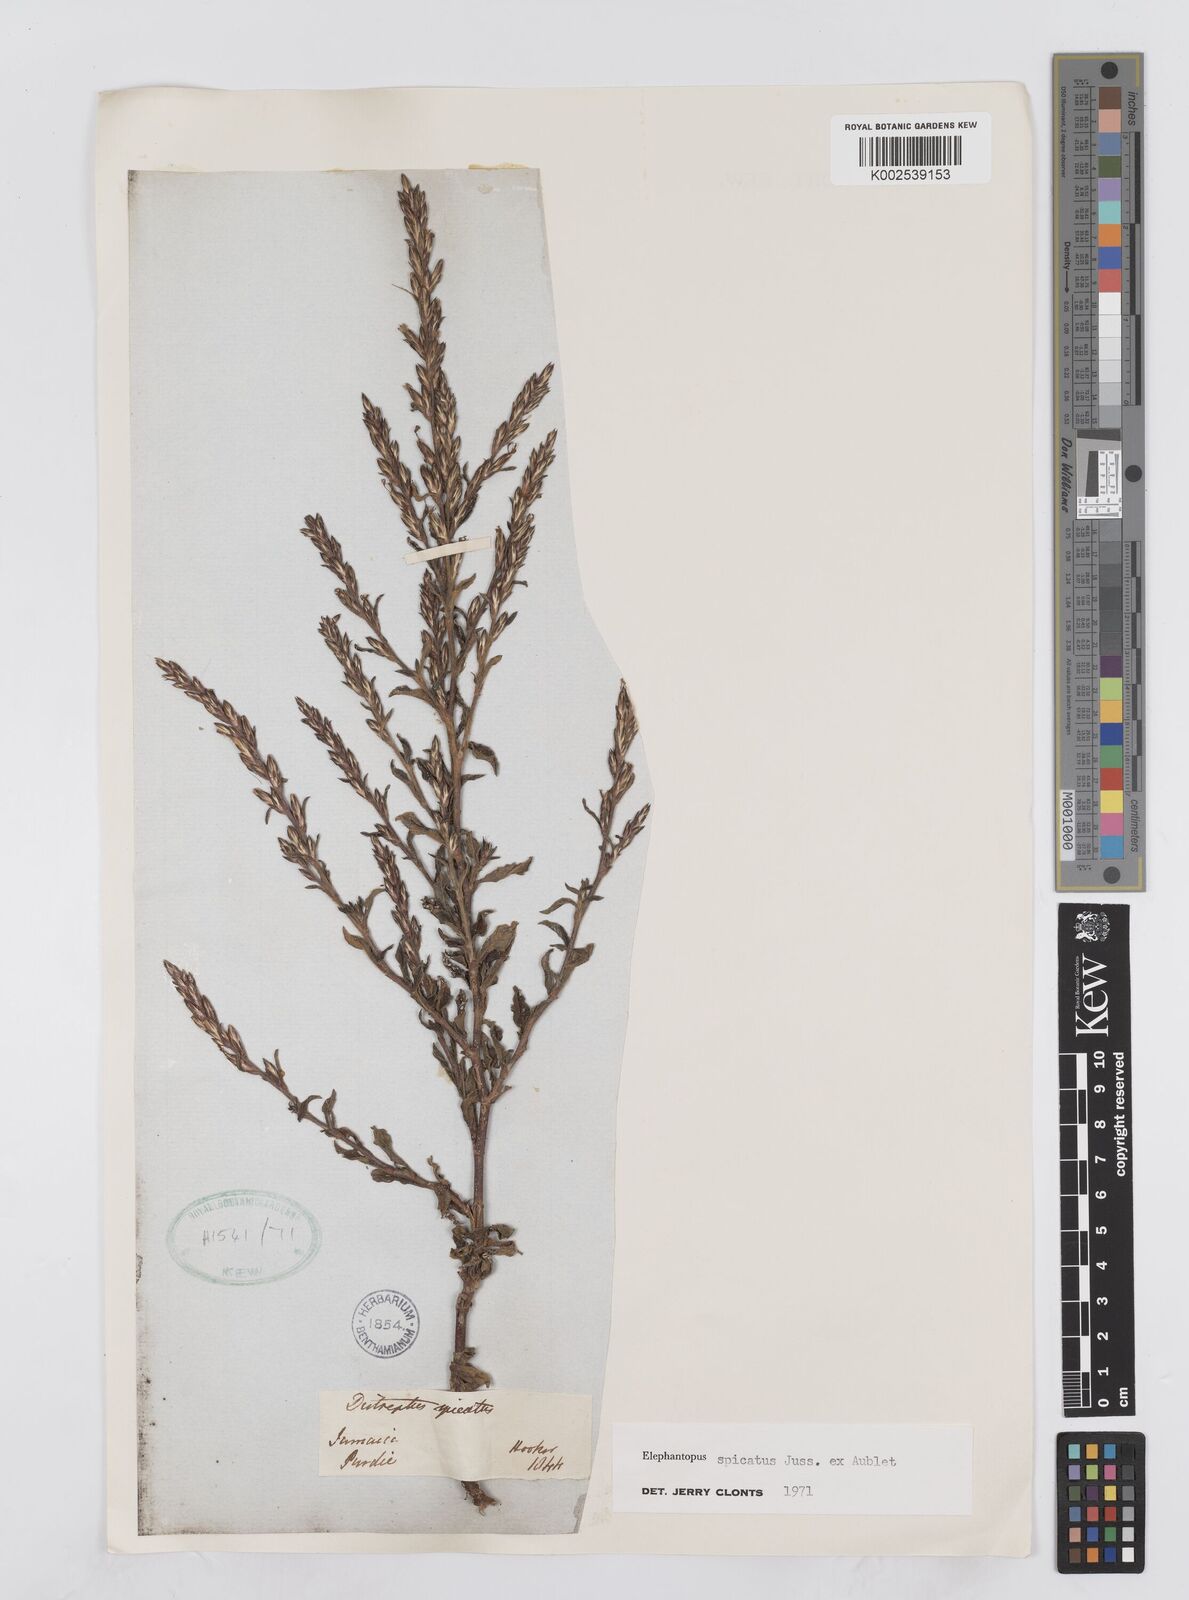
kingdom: Plantae
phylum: Tracheophyta
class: Magnoliopsida
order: Asterales
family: Asteraceae
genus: Pseudelephantopus
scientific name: Pseudelephantopus spicatus
